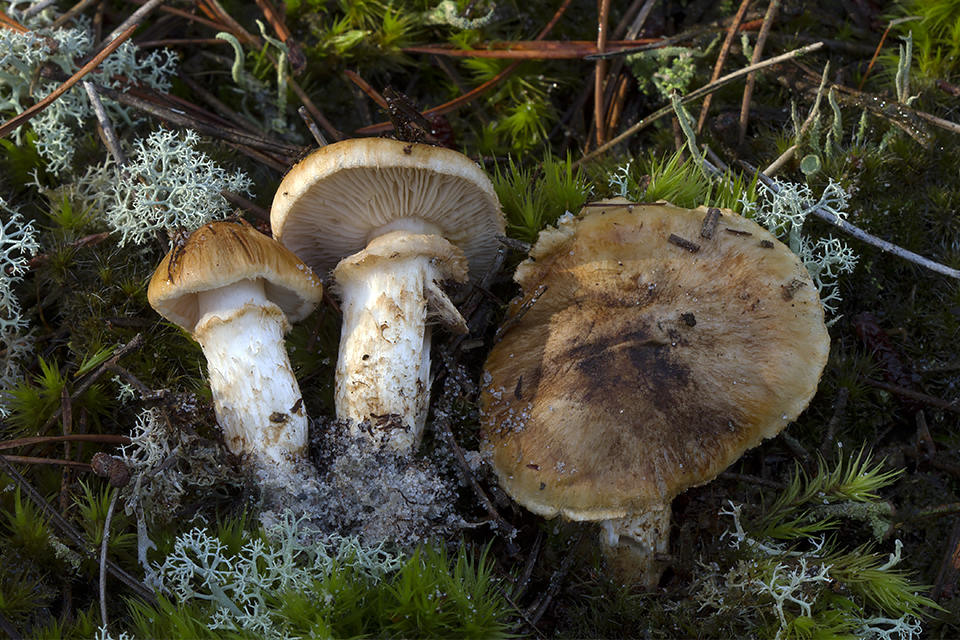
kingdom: Fungi
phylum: Basidiomycota
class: Agaricomycetes
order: Agaricales
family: Tricholomataceae
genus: Tricholoma
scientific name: Tricholoma focale
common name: halsbånd-ridderhat
